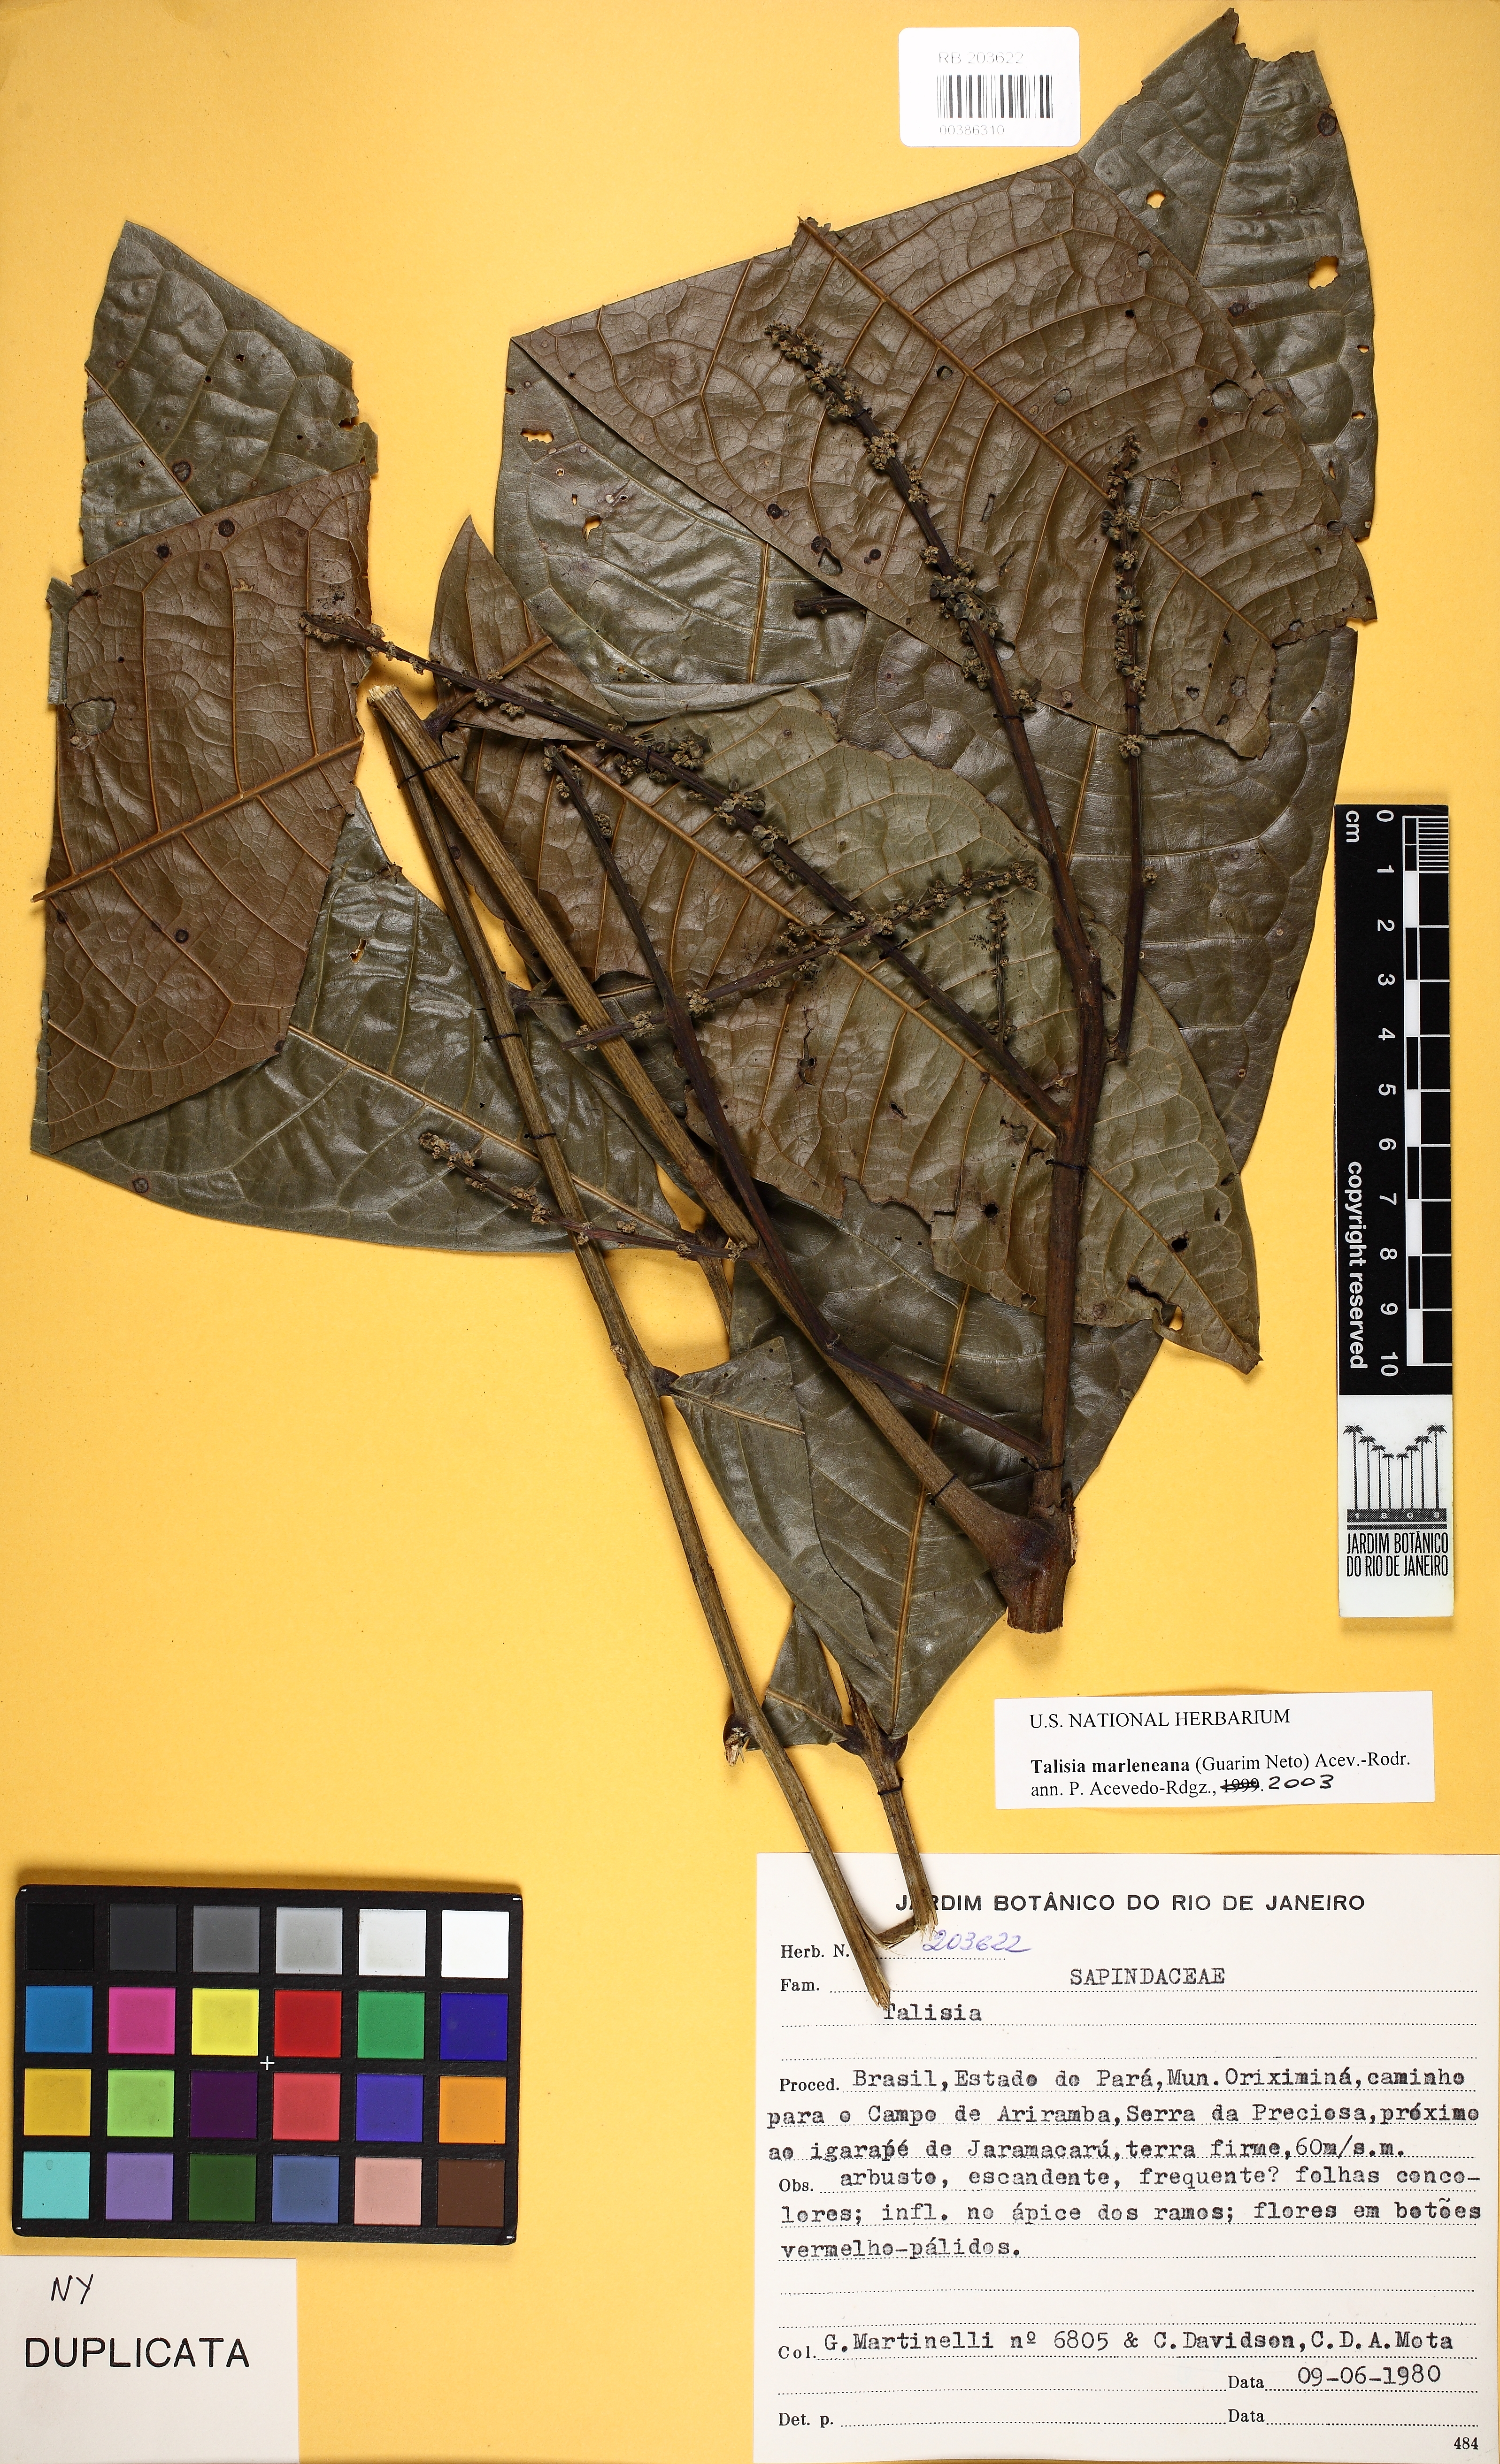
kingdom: Plantae
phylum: Tracheophyta
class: Magnoliopsida
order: Sapindales
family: Sapindaceae
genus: Talisia
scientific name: Talisia marleneana
